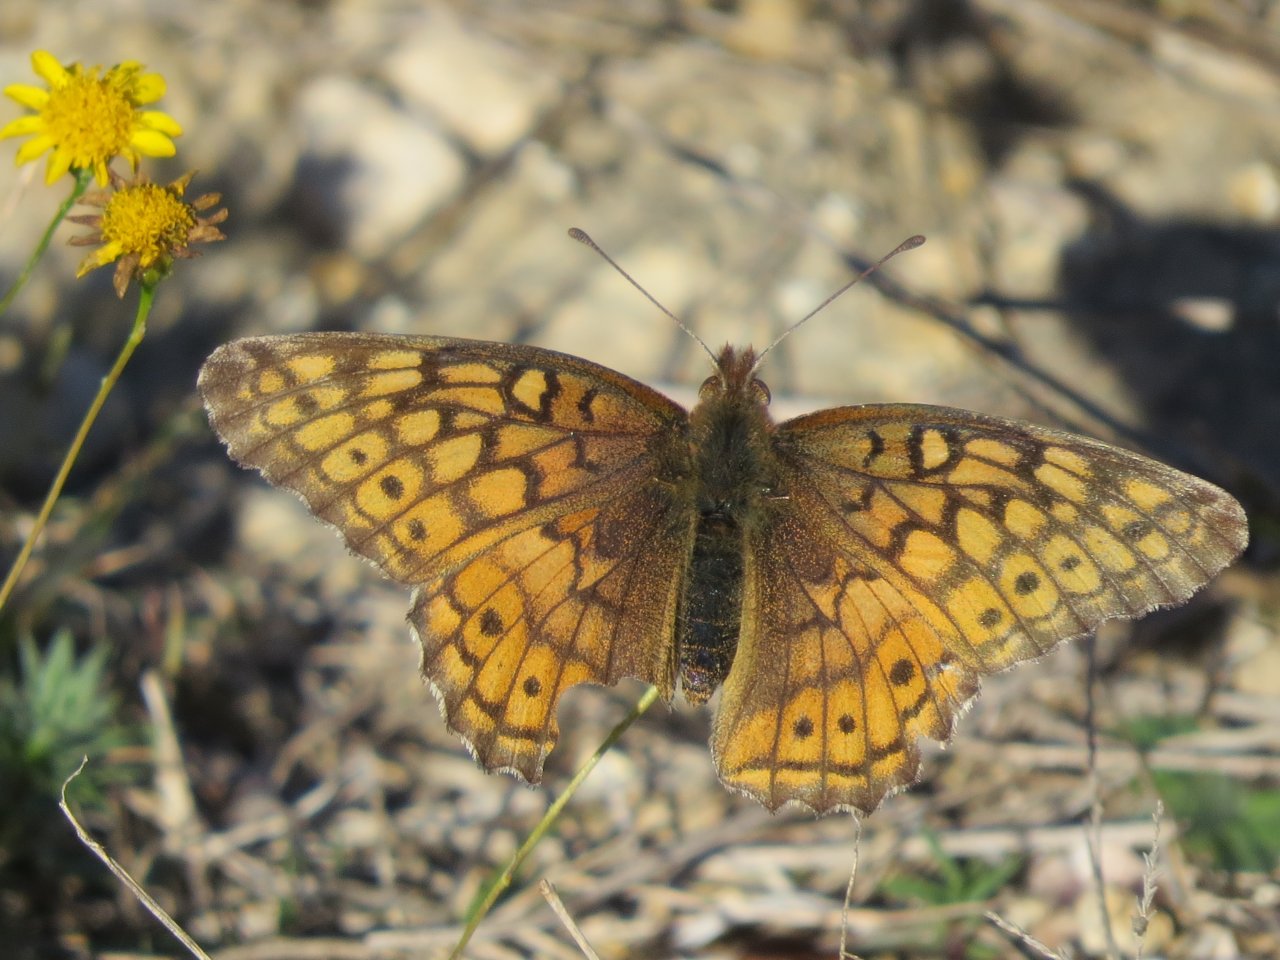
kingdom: Animalia
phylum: Arthropoda
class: Insecta
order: Lepidoptera
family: Nymphalidae
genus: Euptoieta
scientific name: Euptoieta claudia
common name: Variegated Fritillary
